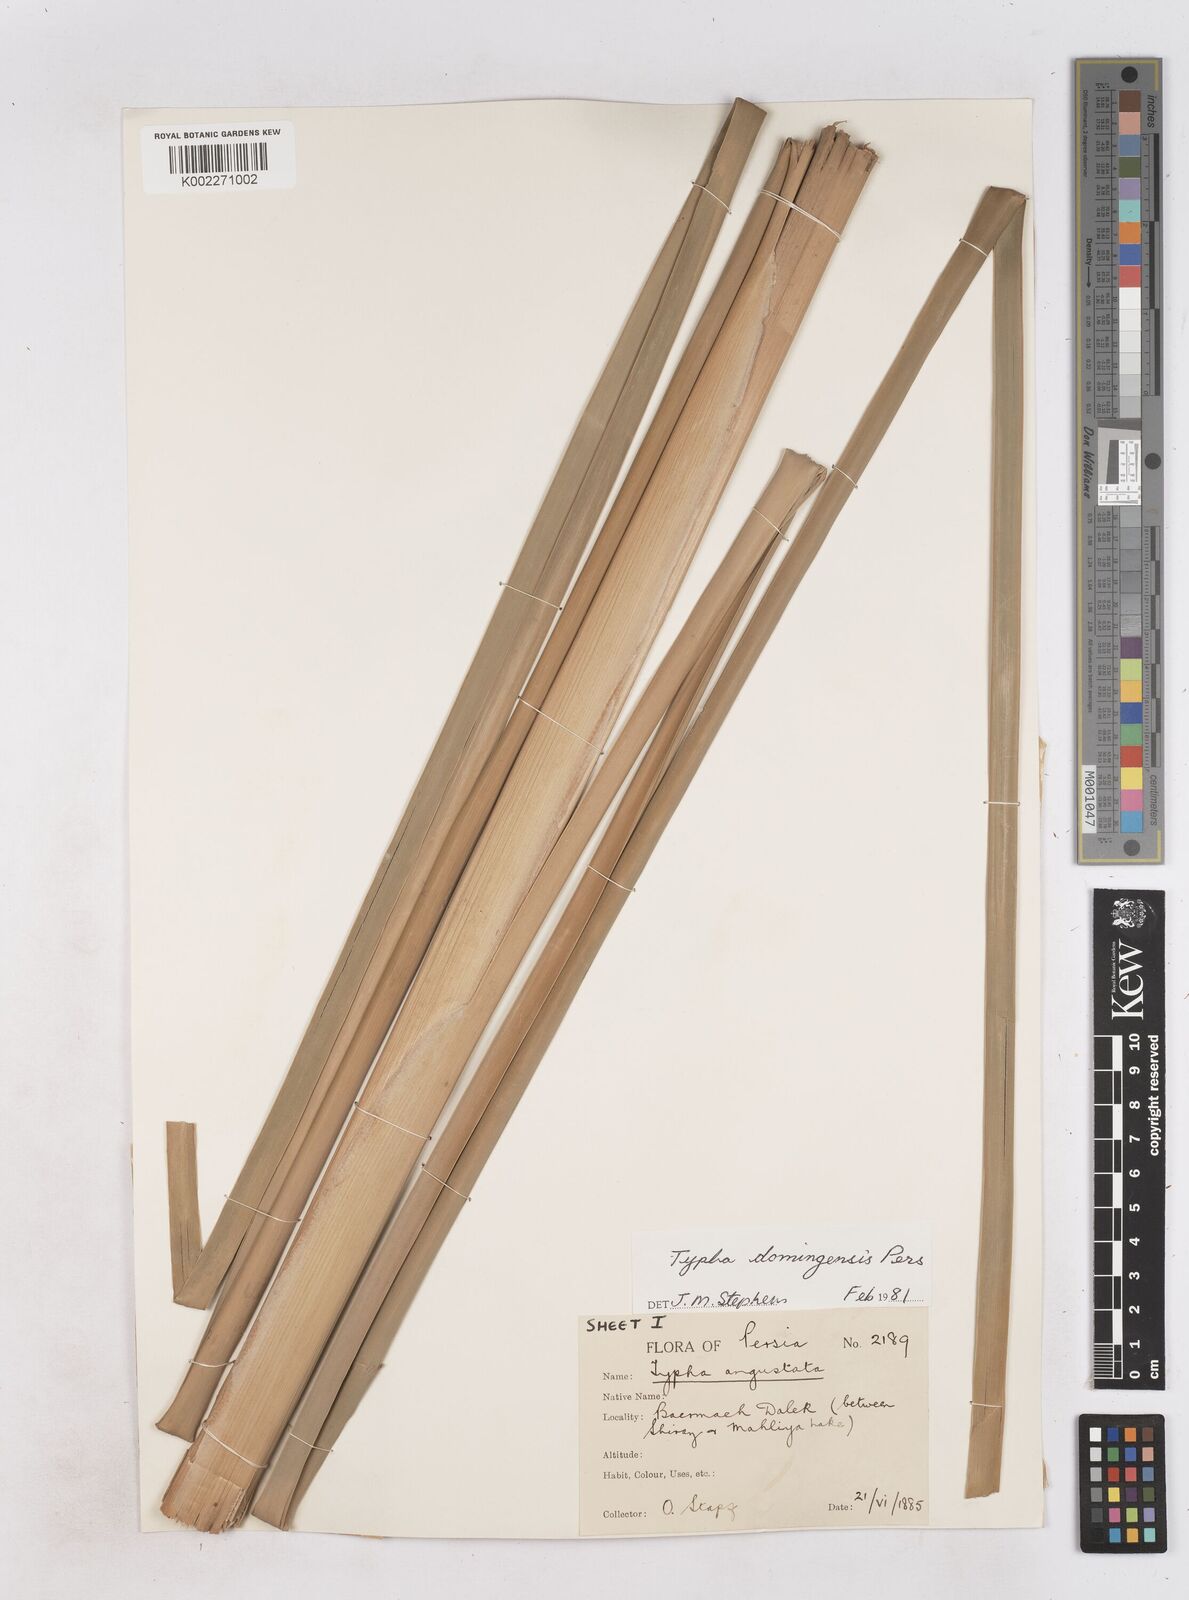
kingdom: Plantae
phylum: Tracheophyta
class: Liliopsida
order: Poales
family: Typhaceae
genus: Typha
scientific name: Typha domingensis
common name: Southern cattail
